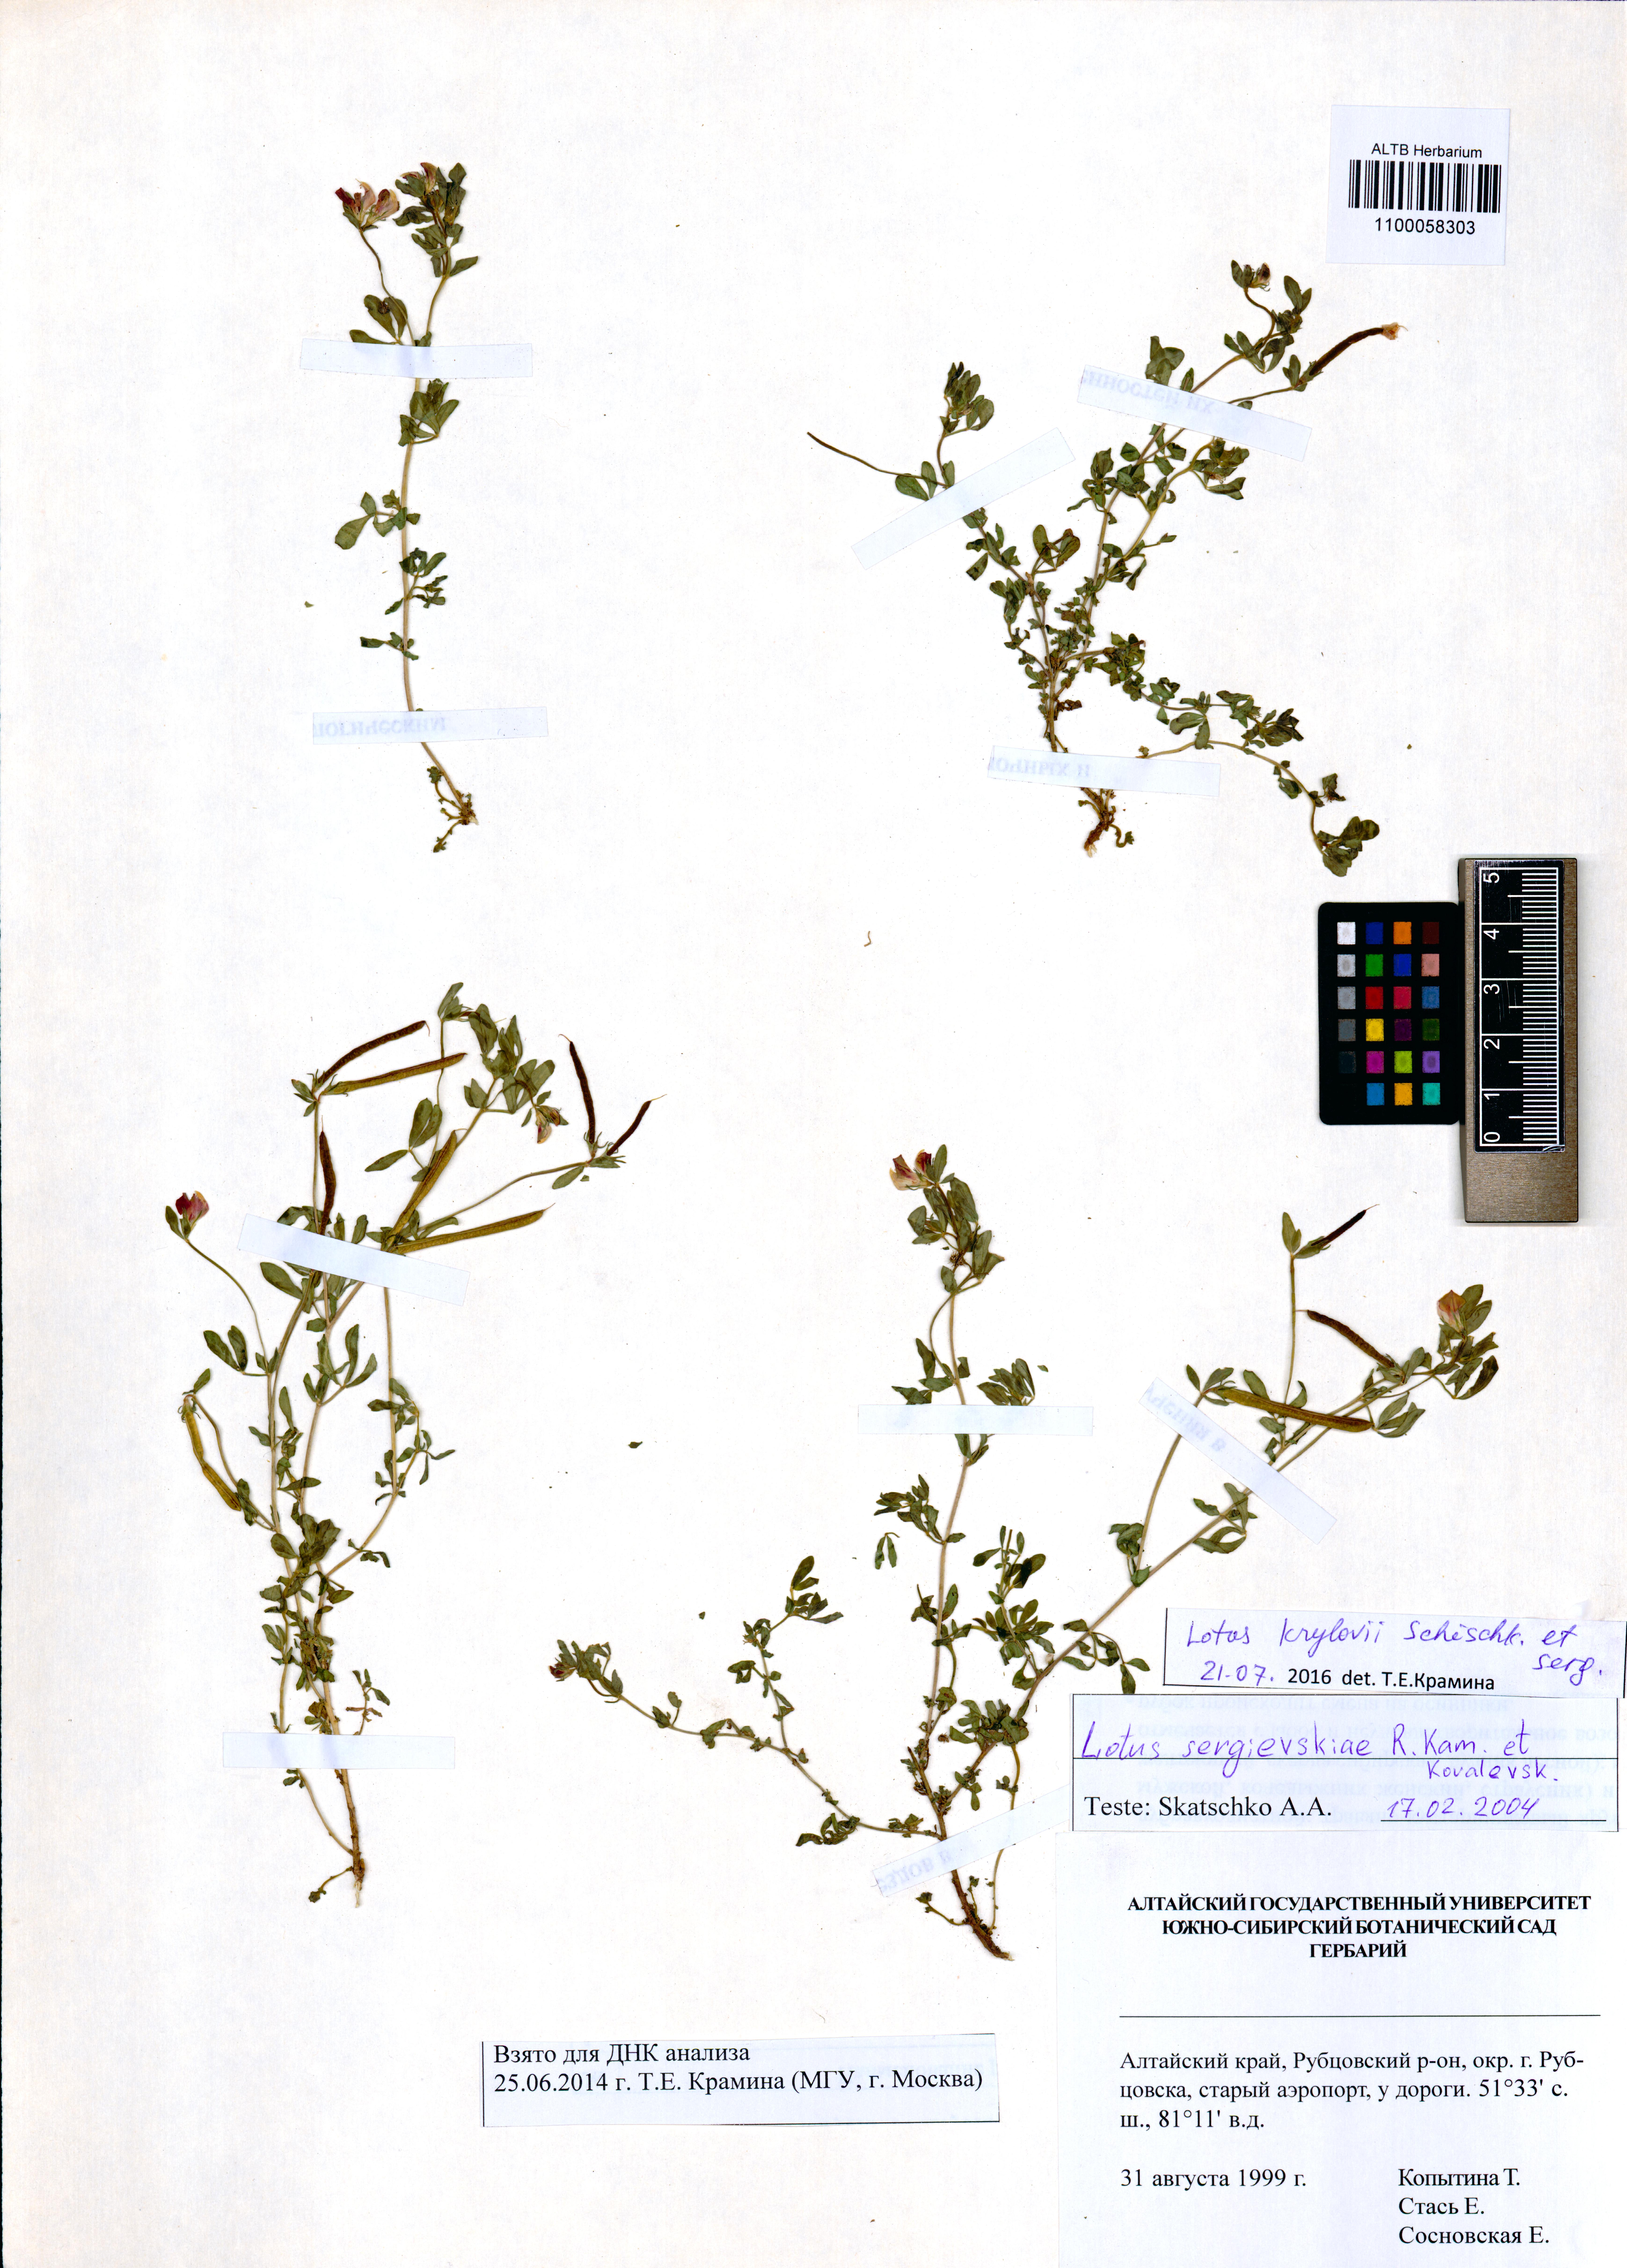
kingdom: Plantae
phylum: Tracheophyta
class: Magnoliopsida
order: Fabales
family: Fabaceae
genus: Lotus
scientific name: Lotus krylovii
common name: Krylov's bird's-foot trefoil
